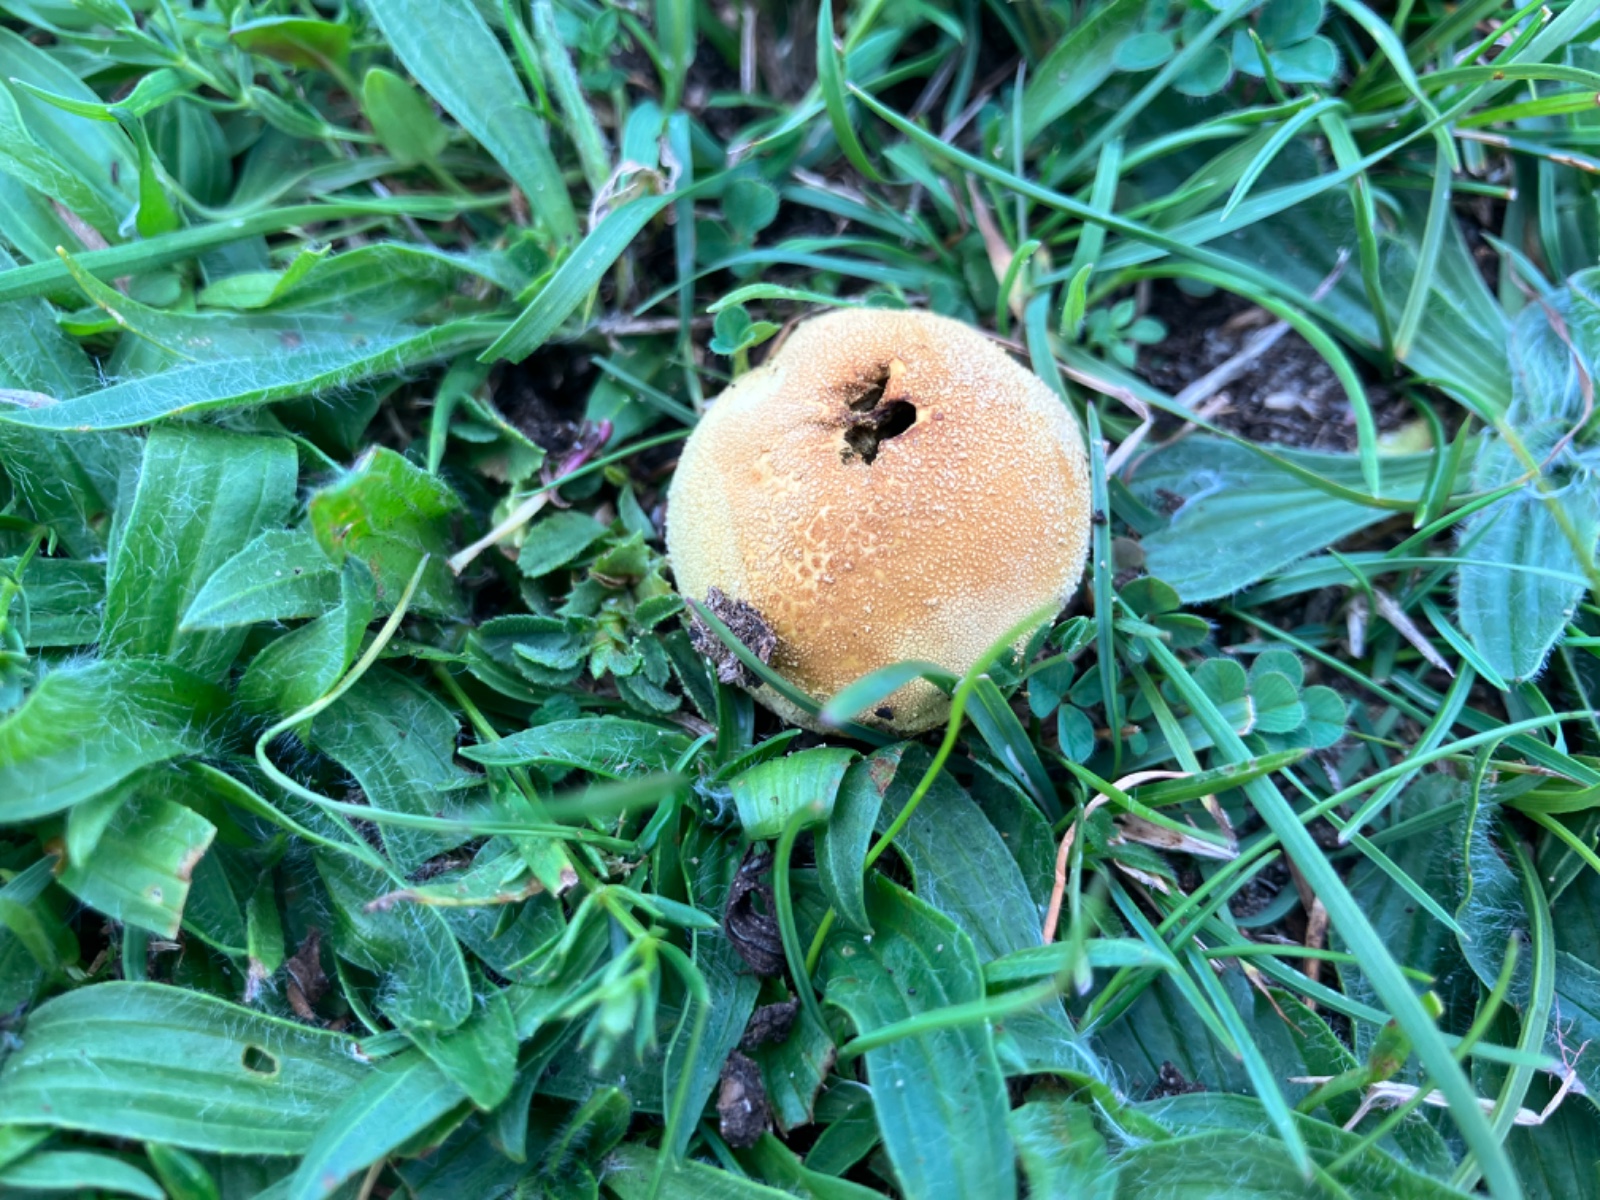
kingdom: Fungi
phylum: Basidiomycota
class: Agaricomycetes
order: Agaricales
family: Lycoperdaceae
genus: Lycoperdon
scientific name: Lycoperdon lividum
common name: mark-støvbold
